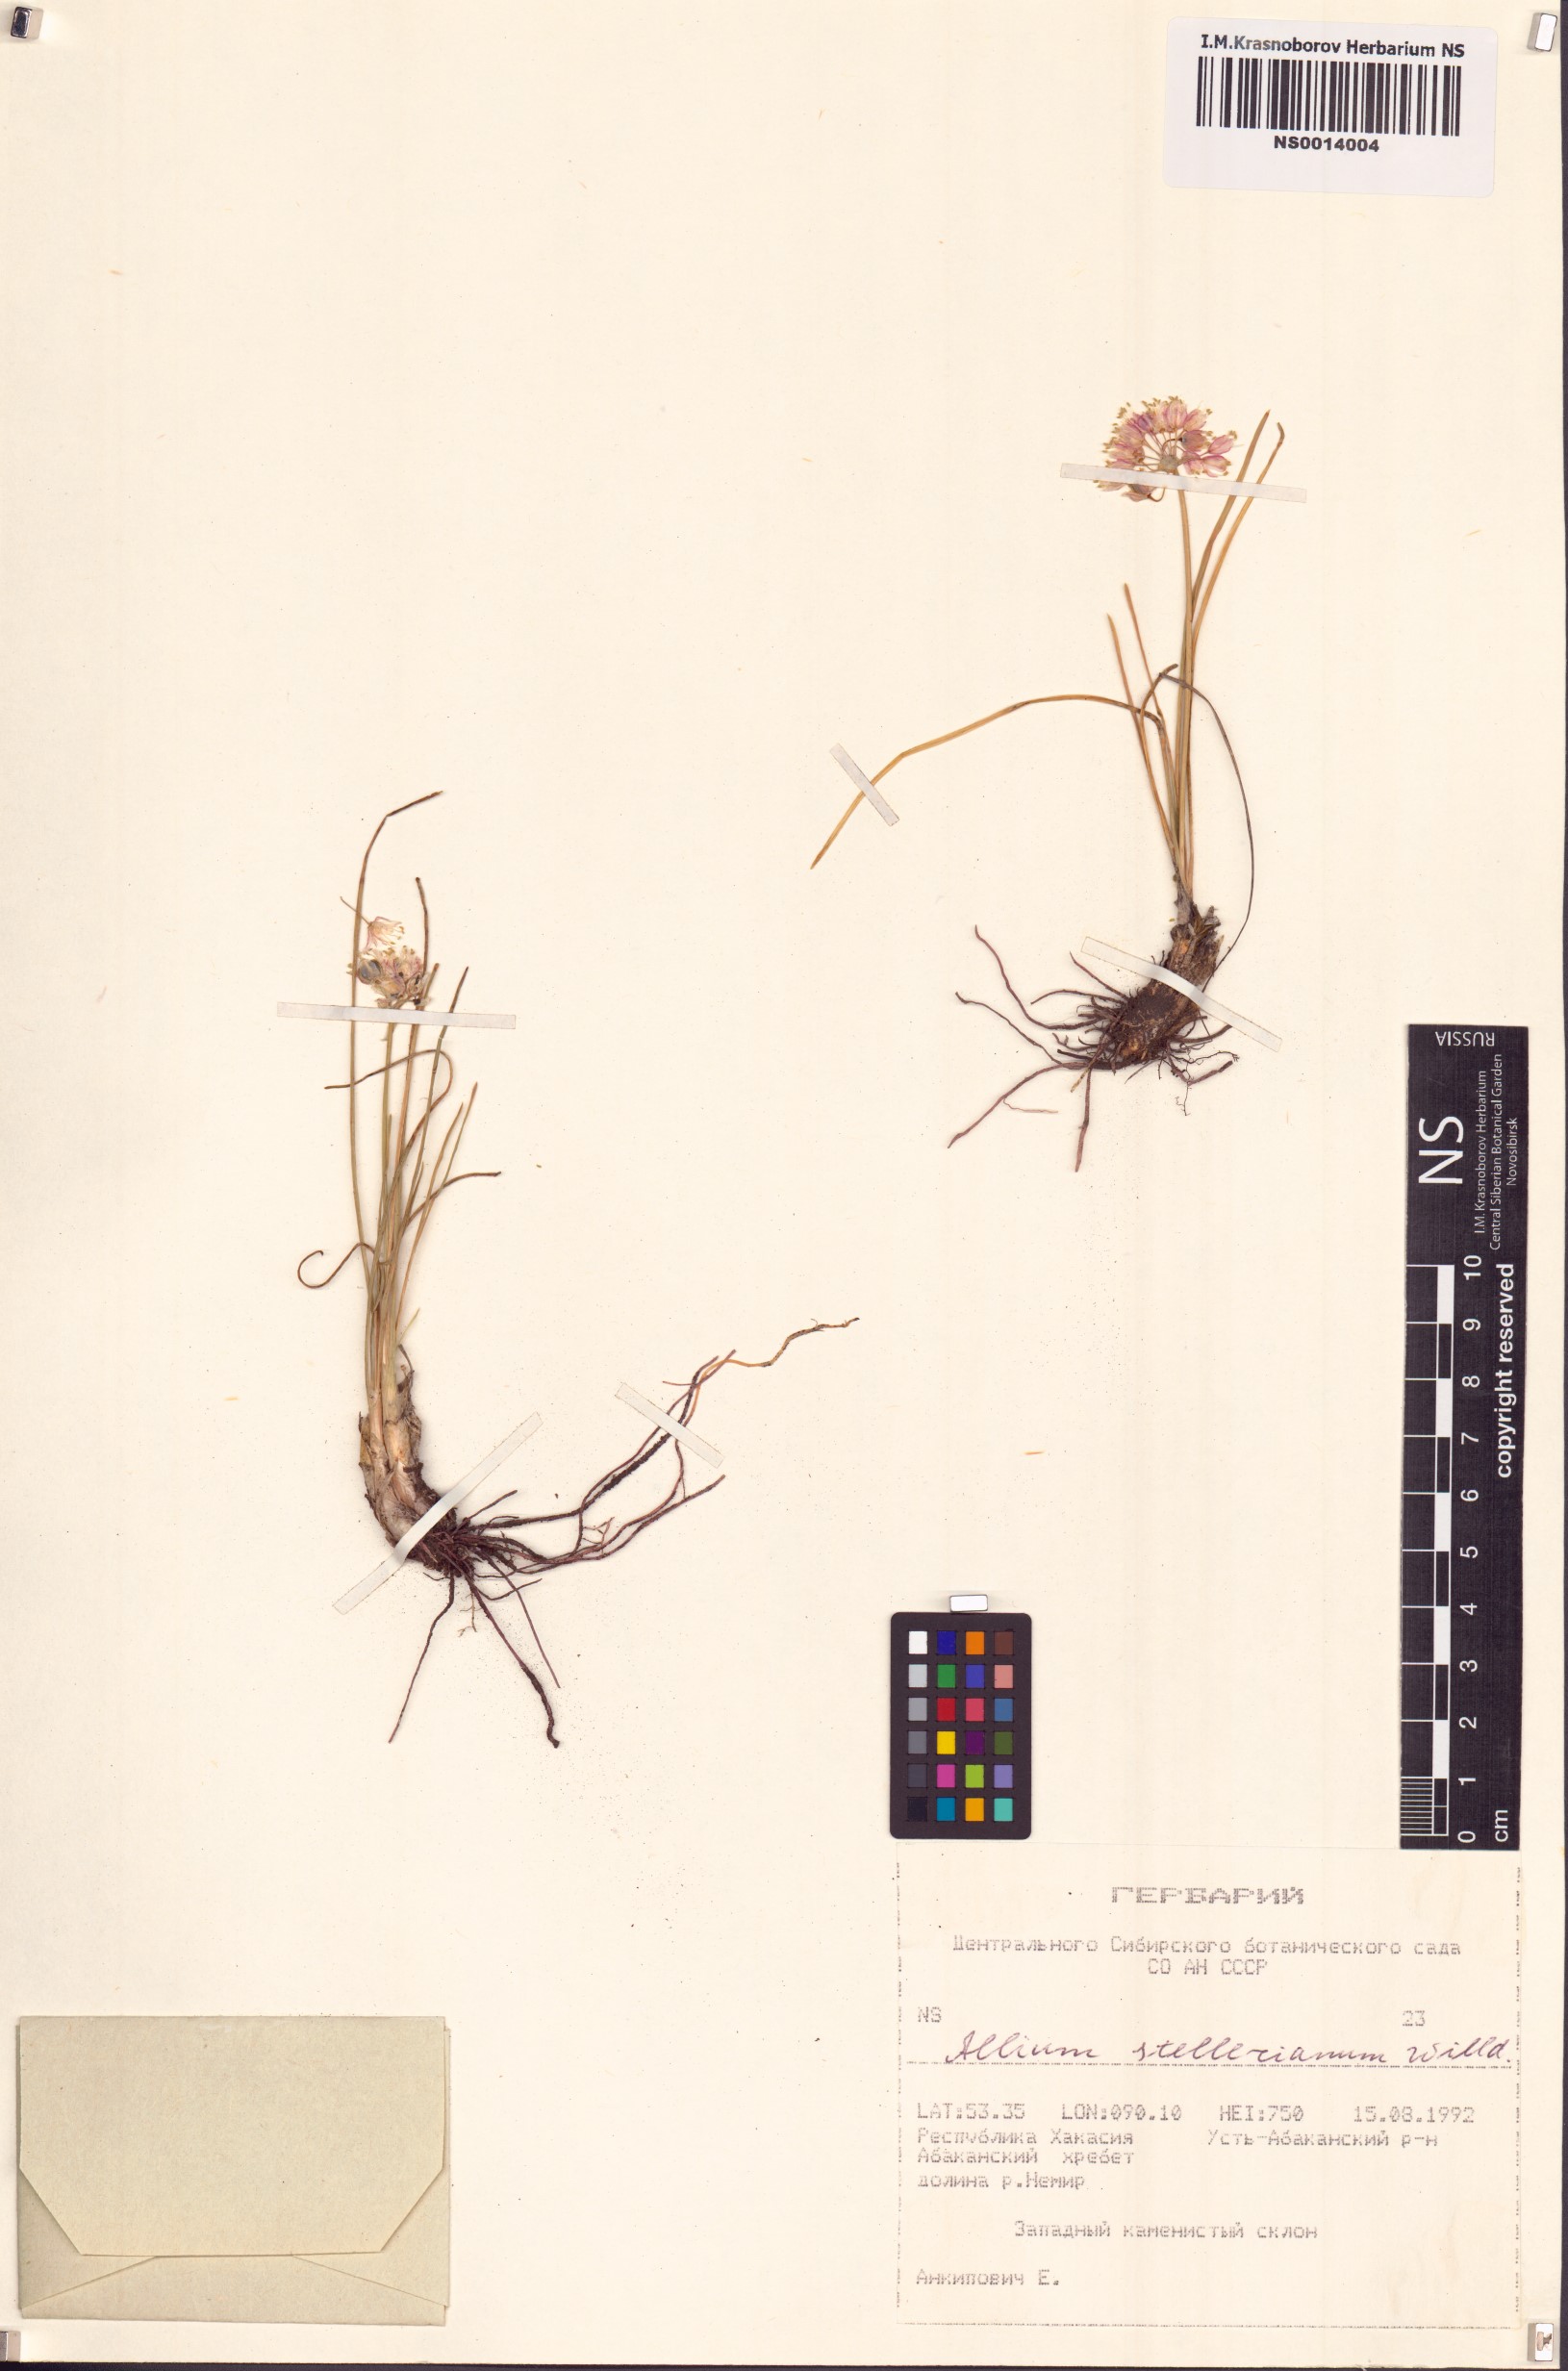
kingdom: Plantae
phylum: Tracheophyta
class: Liliopsida
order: Asparagales
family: Amaryllidaceae
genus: Allium
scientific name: Allium stellerianum
